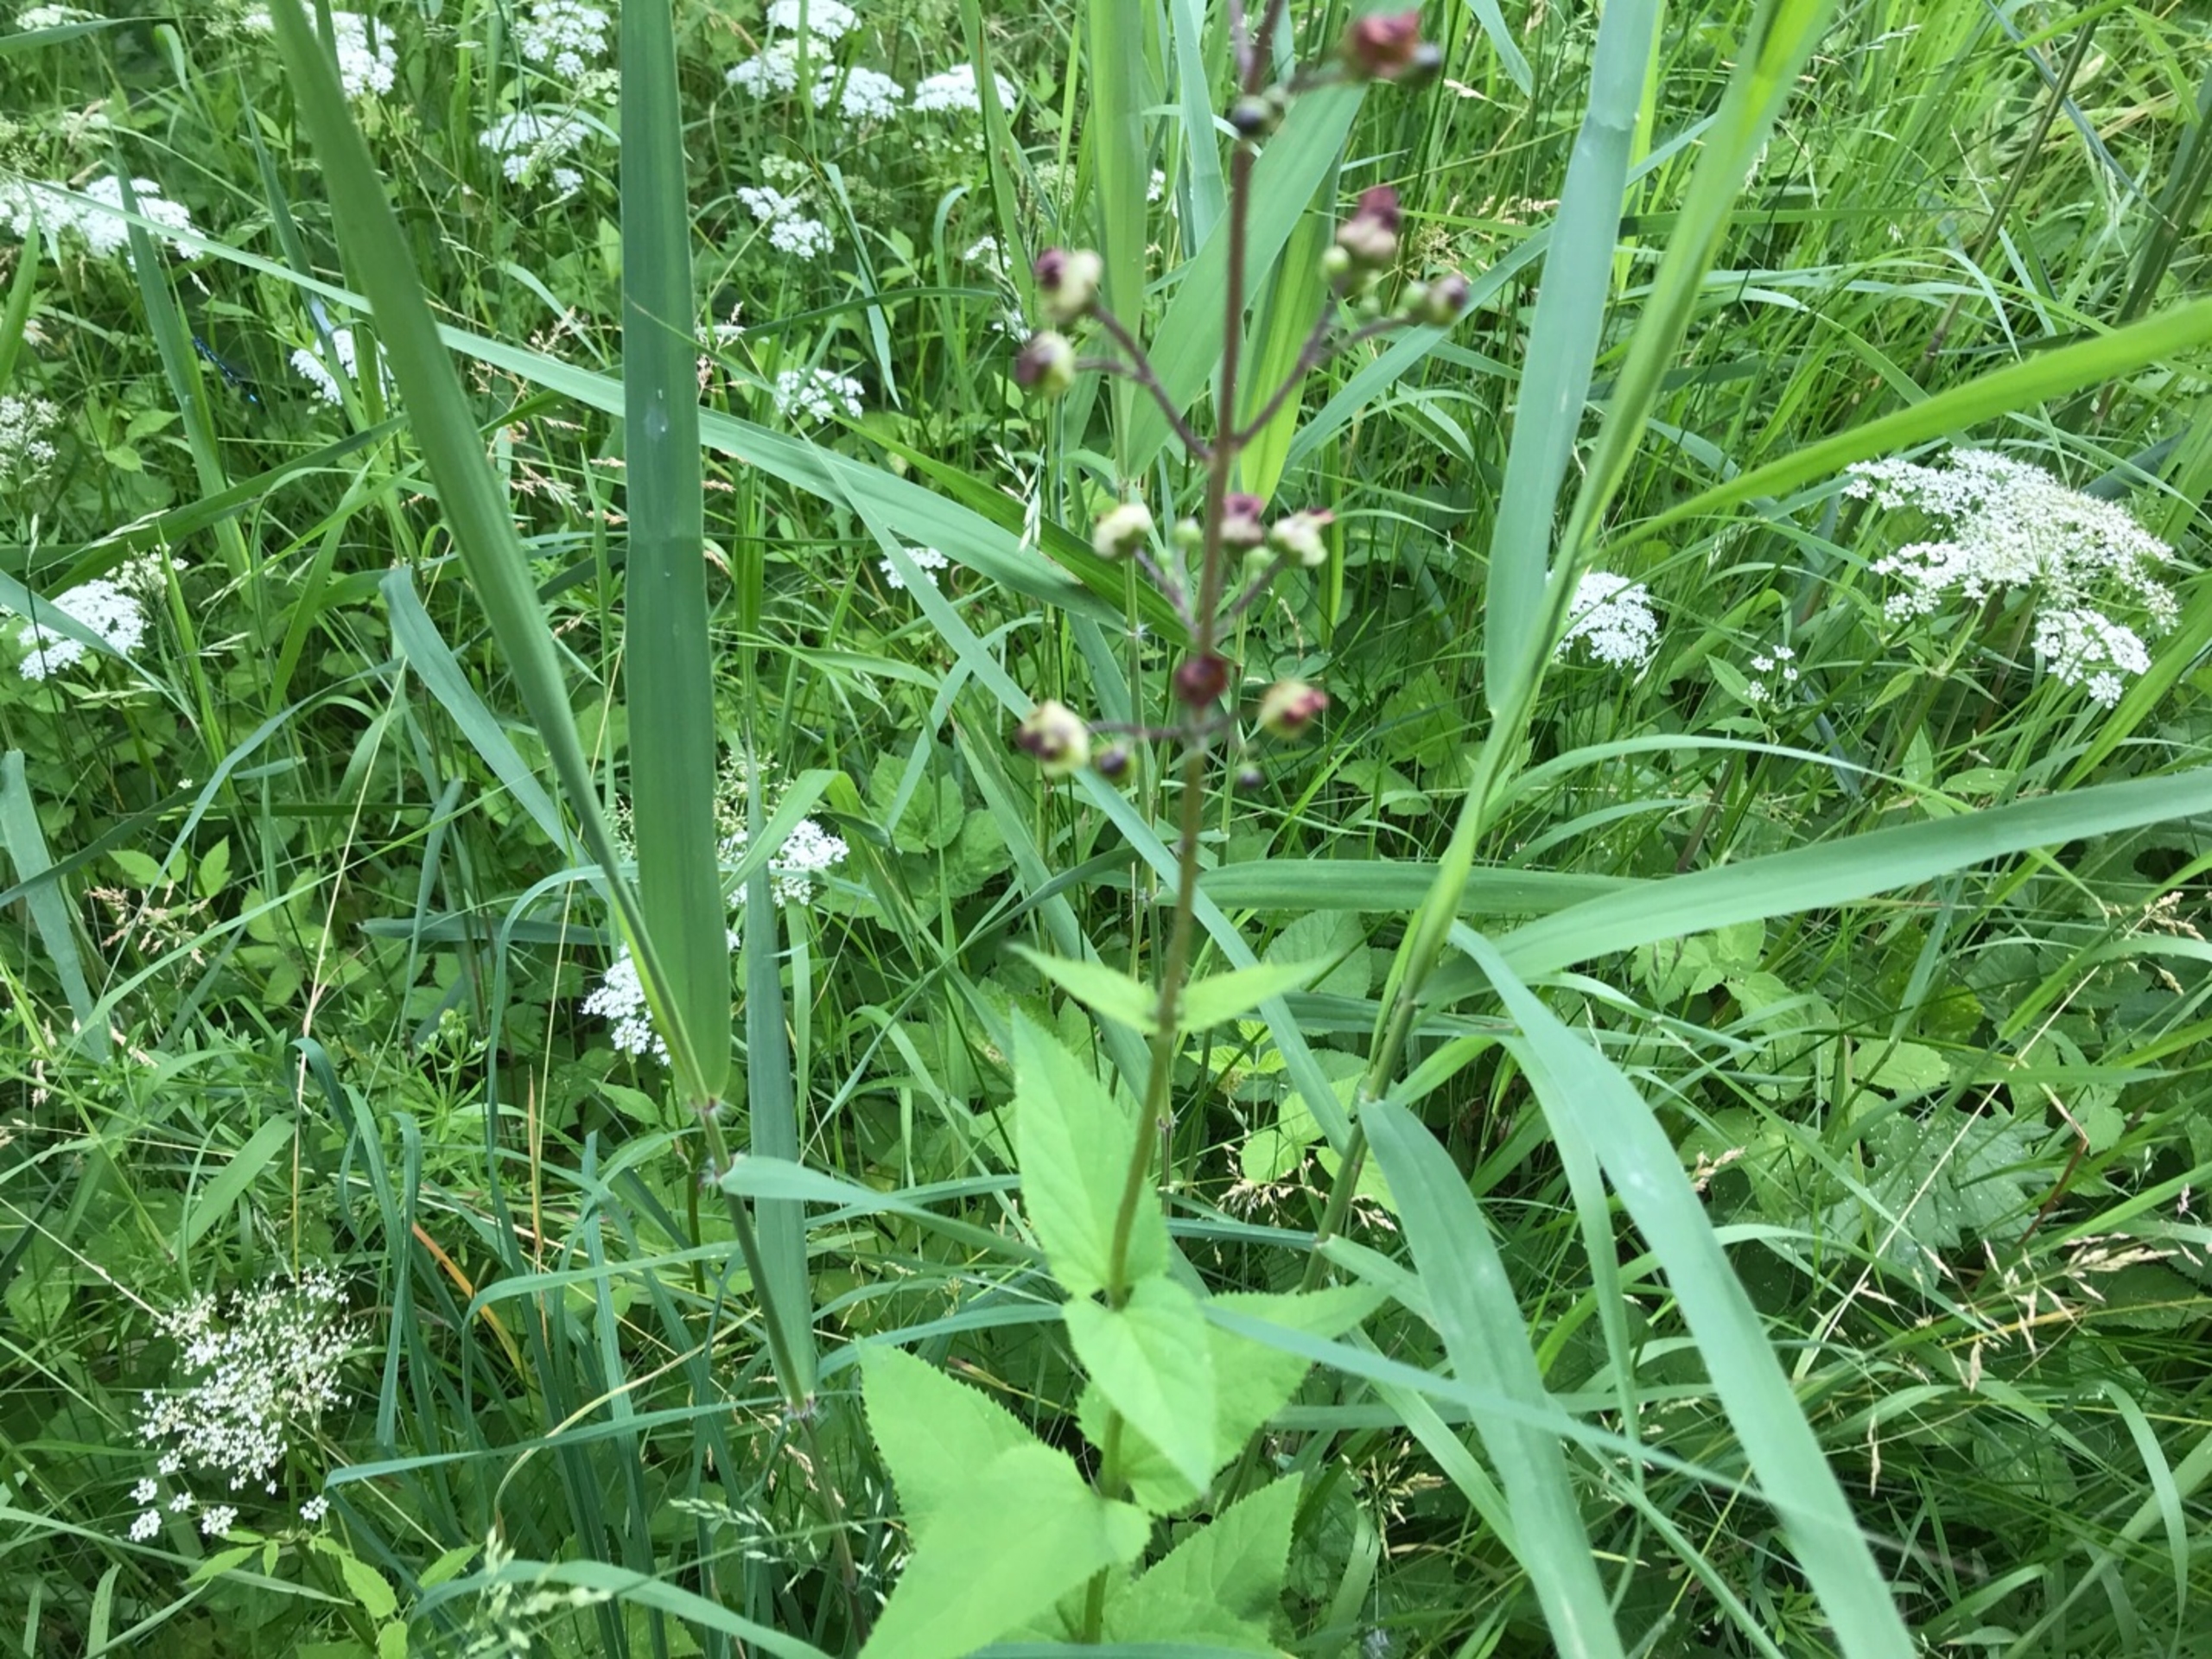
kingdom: Plantae
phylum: Tracheophyta
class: Magnoliopsida
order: Lamiales
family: Scrophulariaceae
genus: Scrophularia
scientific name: Scrophularia nodosa
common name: Knoldet brunrod
